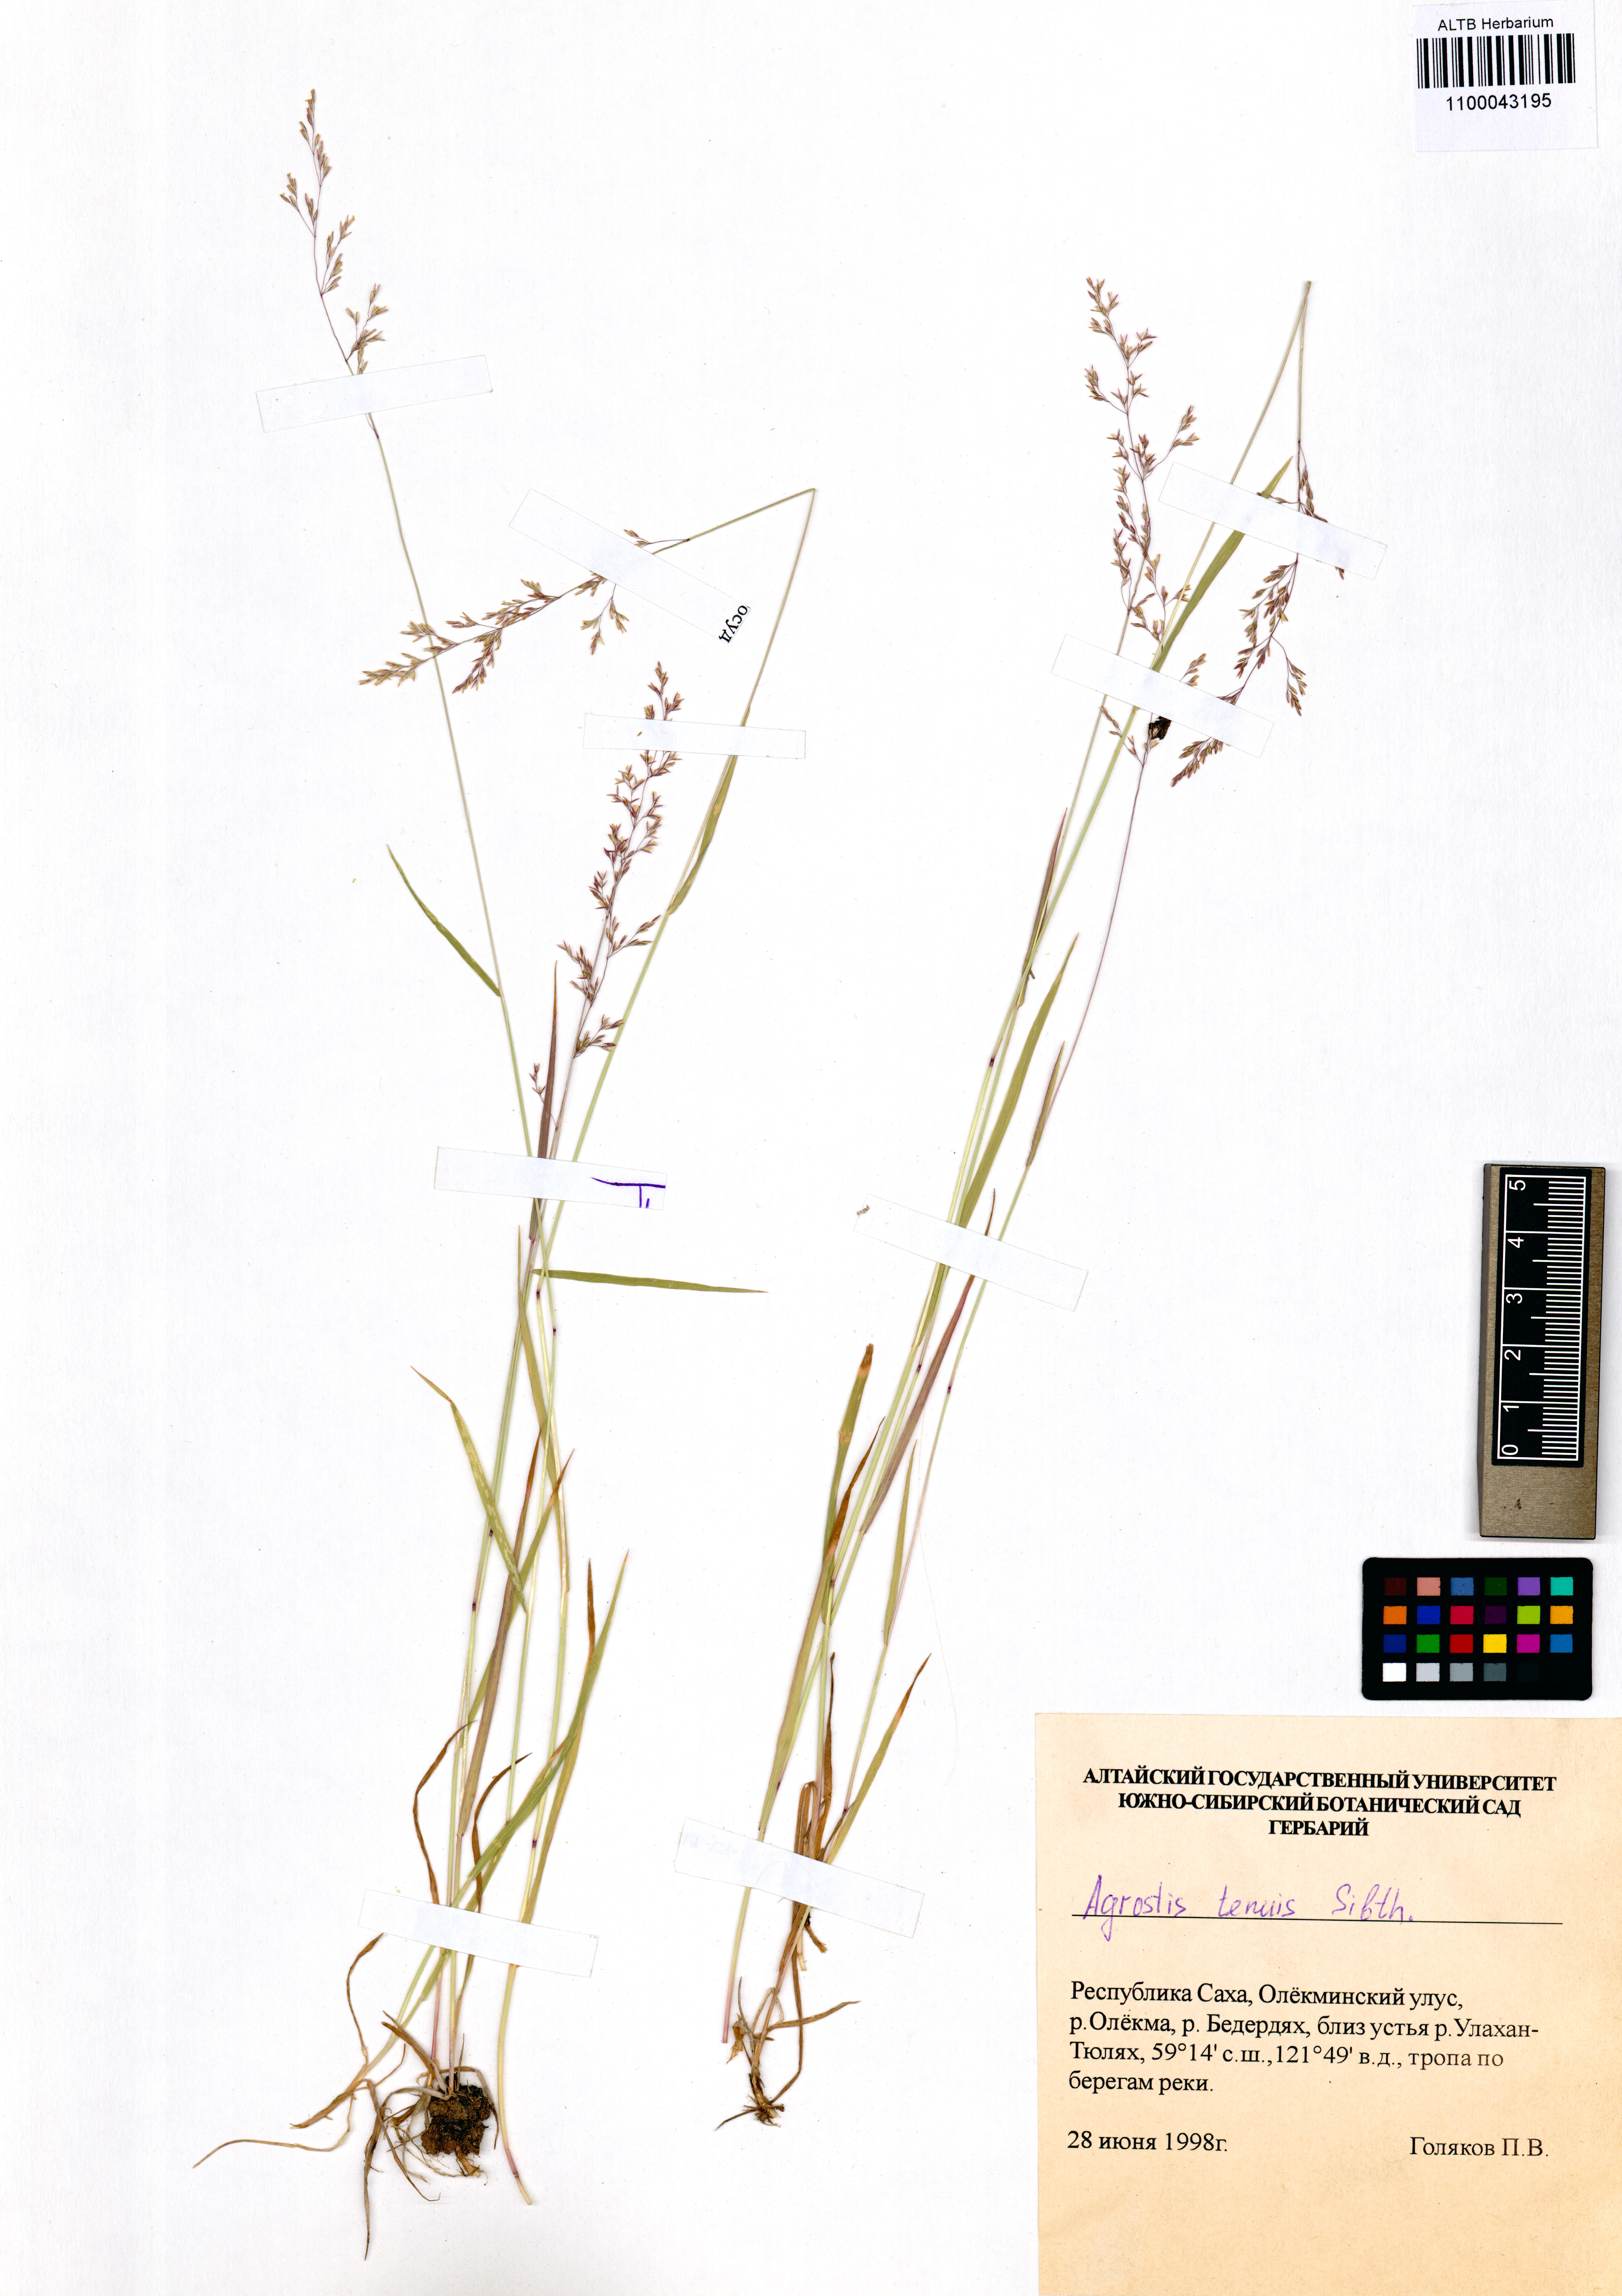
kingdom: Plantae
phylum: Tracheophyta
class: Liliopsida
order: Poales
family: Poaceae
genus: Agrostis
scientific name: Agrostis capillaris
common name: Colonial bentgrass
